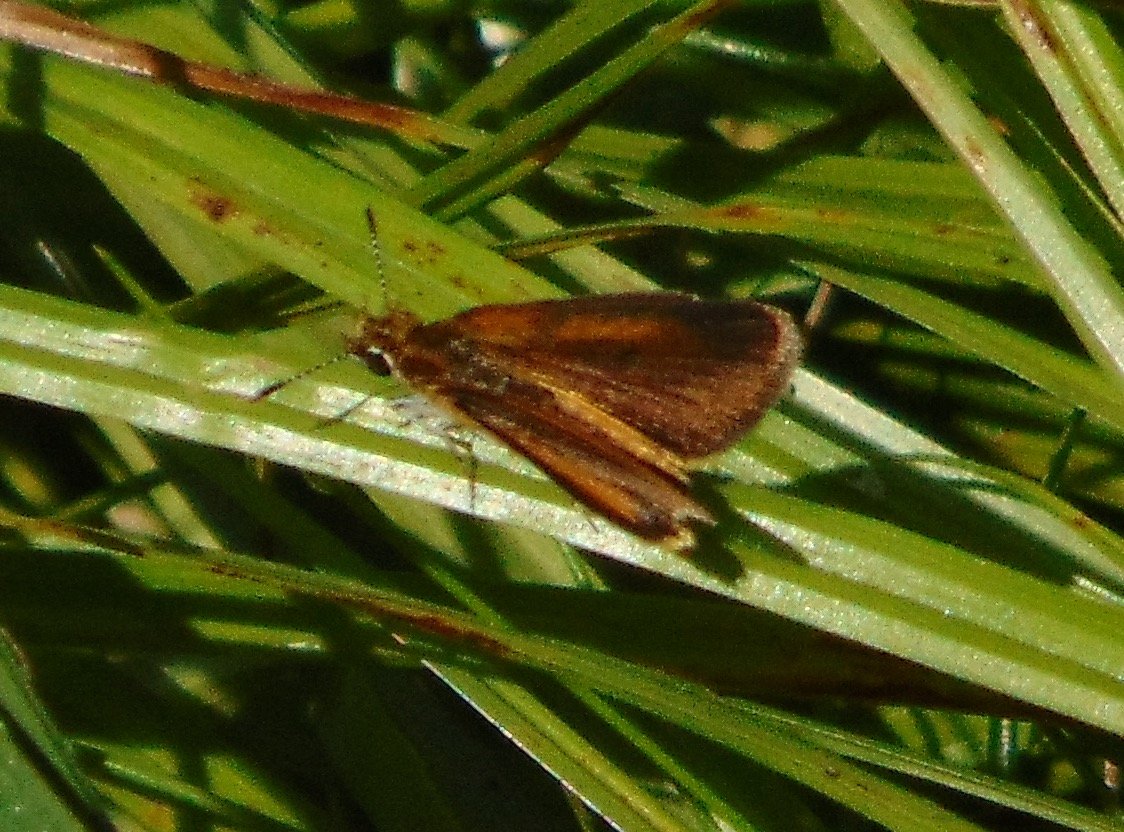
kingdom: Animalia
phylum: Arthropoda
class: Insecta
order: Lepidoptera
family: Hesperiidae
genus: Ancyloxypha
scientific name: Ancyloxypha numitor
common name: Least Skipper
